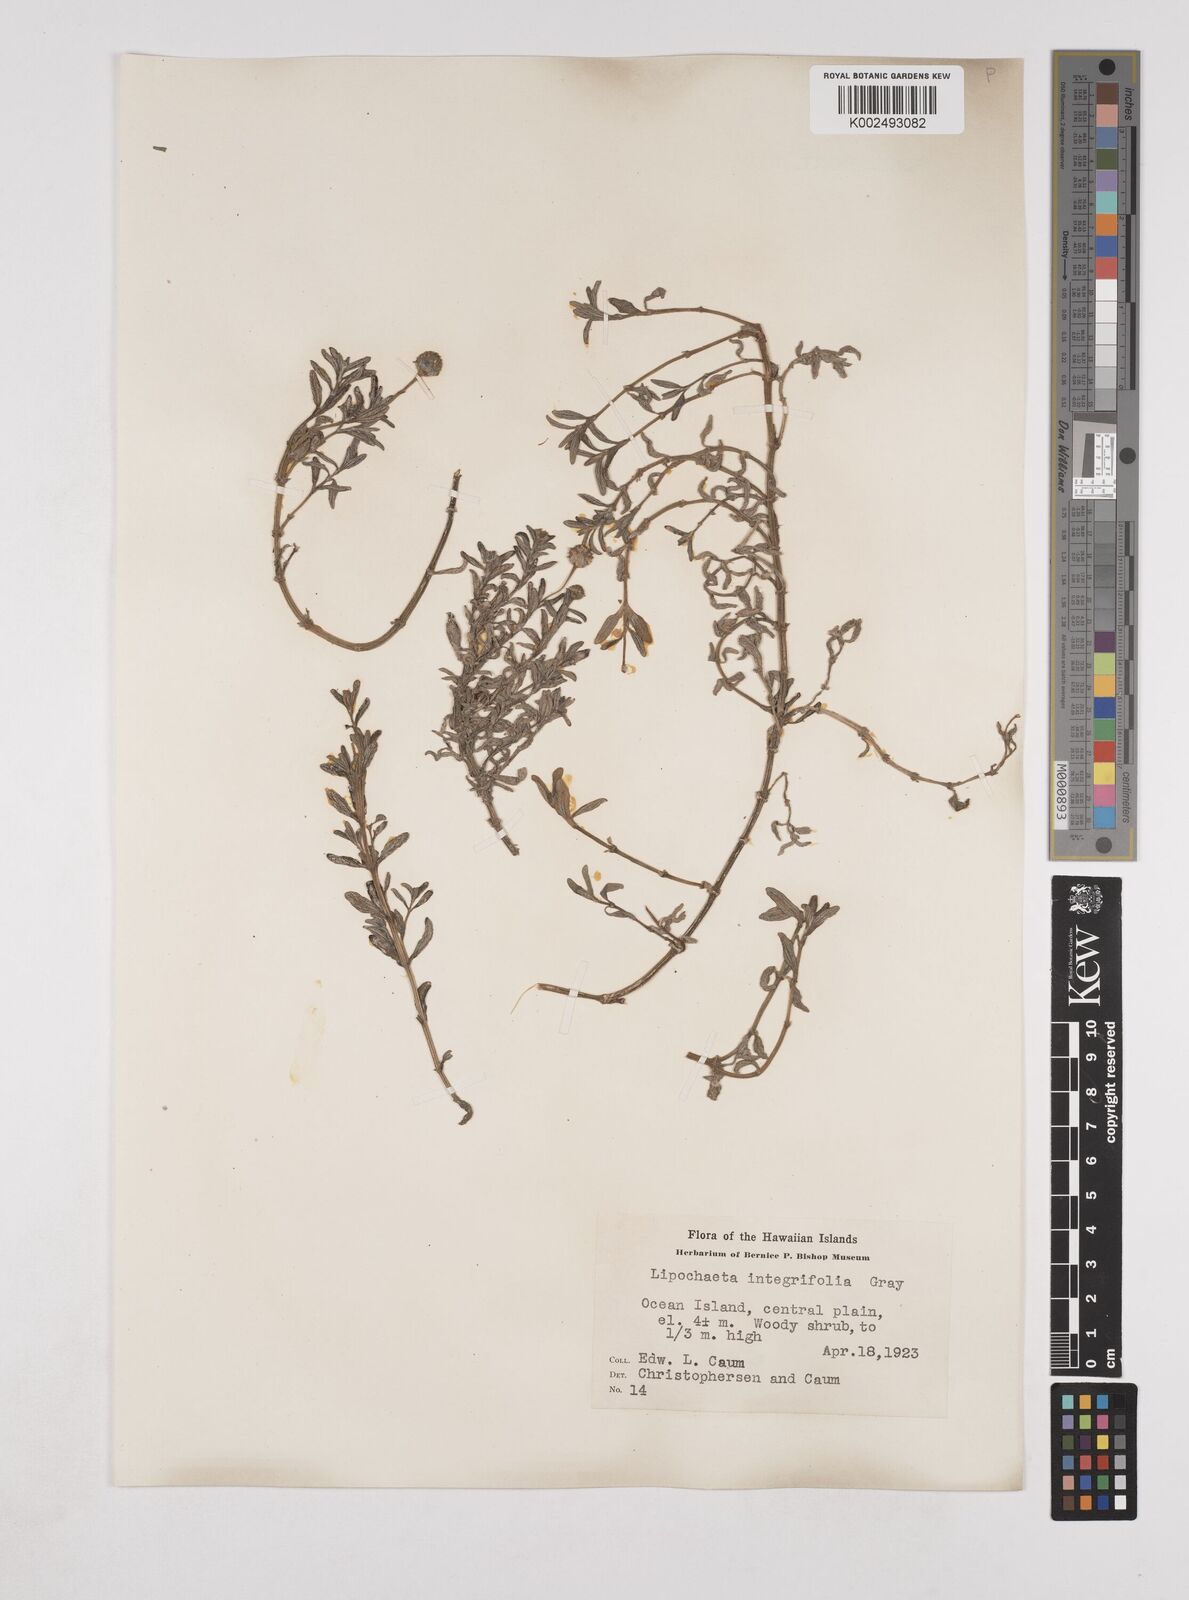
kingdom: Plantae
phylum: Tracheophyta
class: Magnoliopsida
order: Asterales
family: Asteraceae
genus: Lipochaeta
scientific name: Lipochaeta integrifolia
